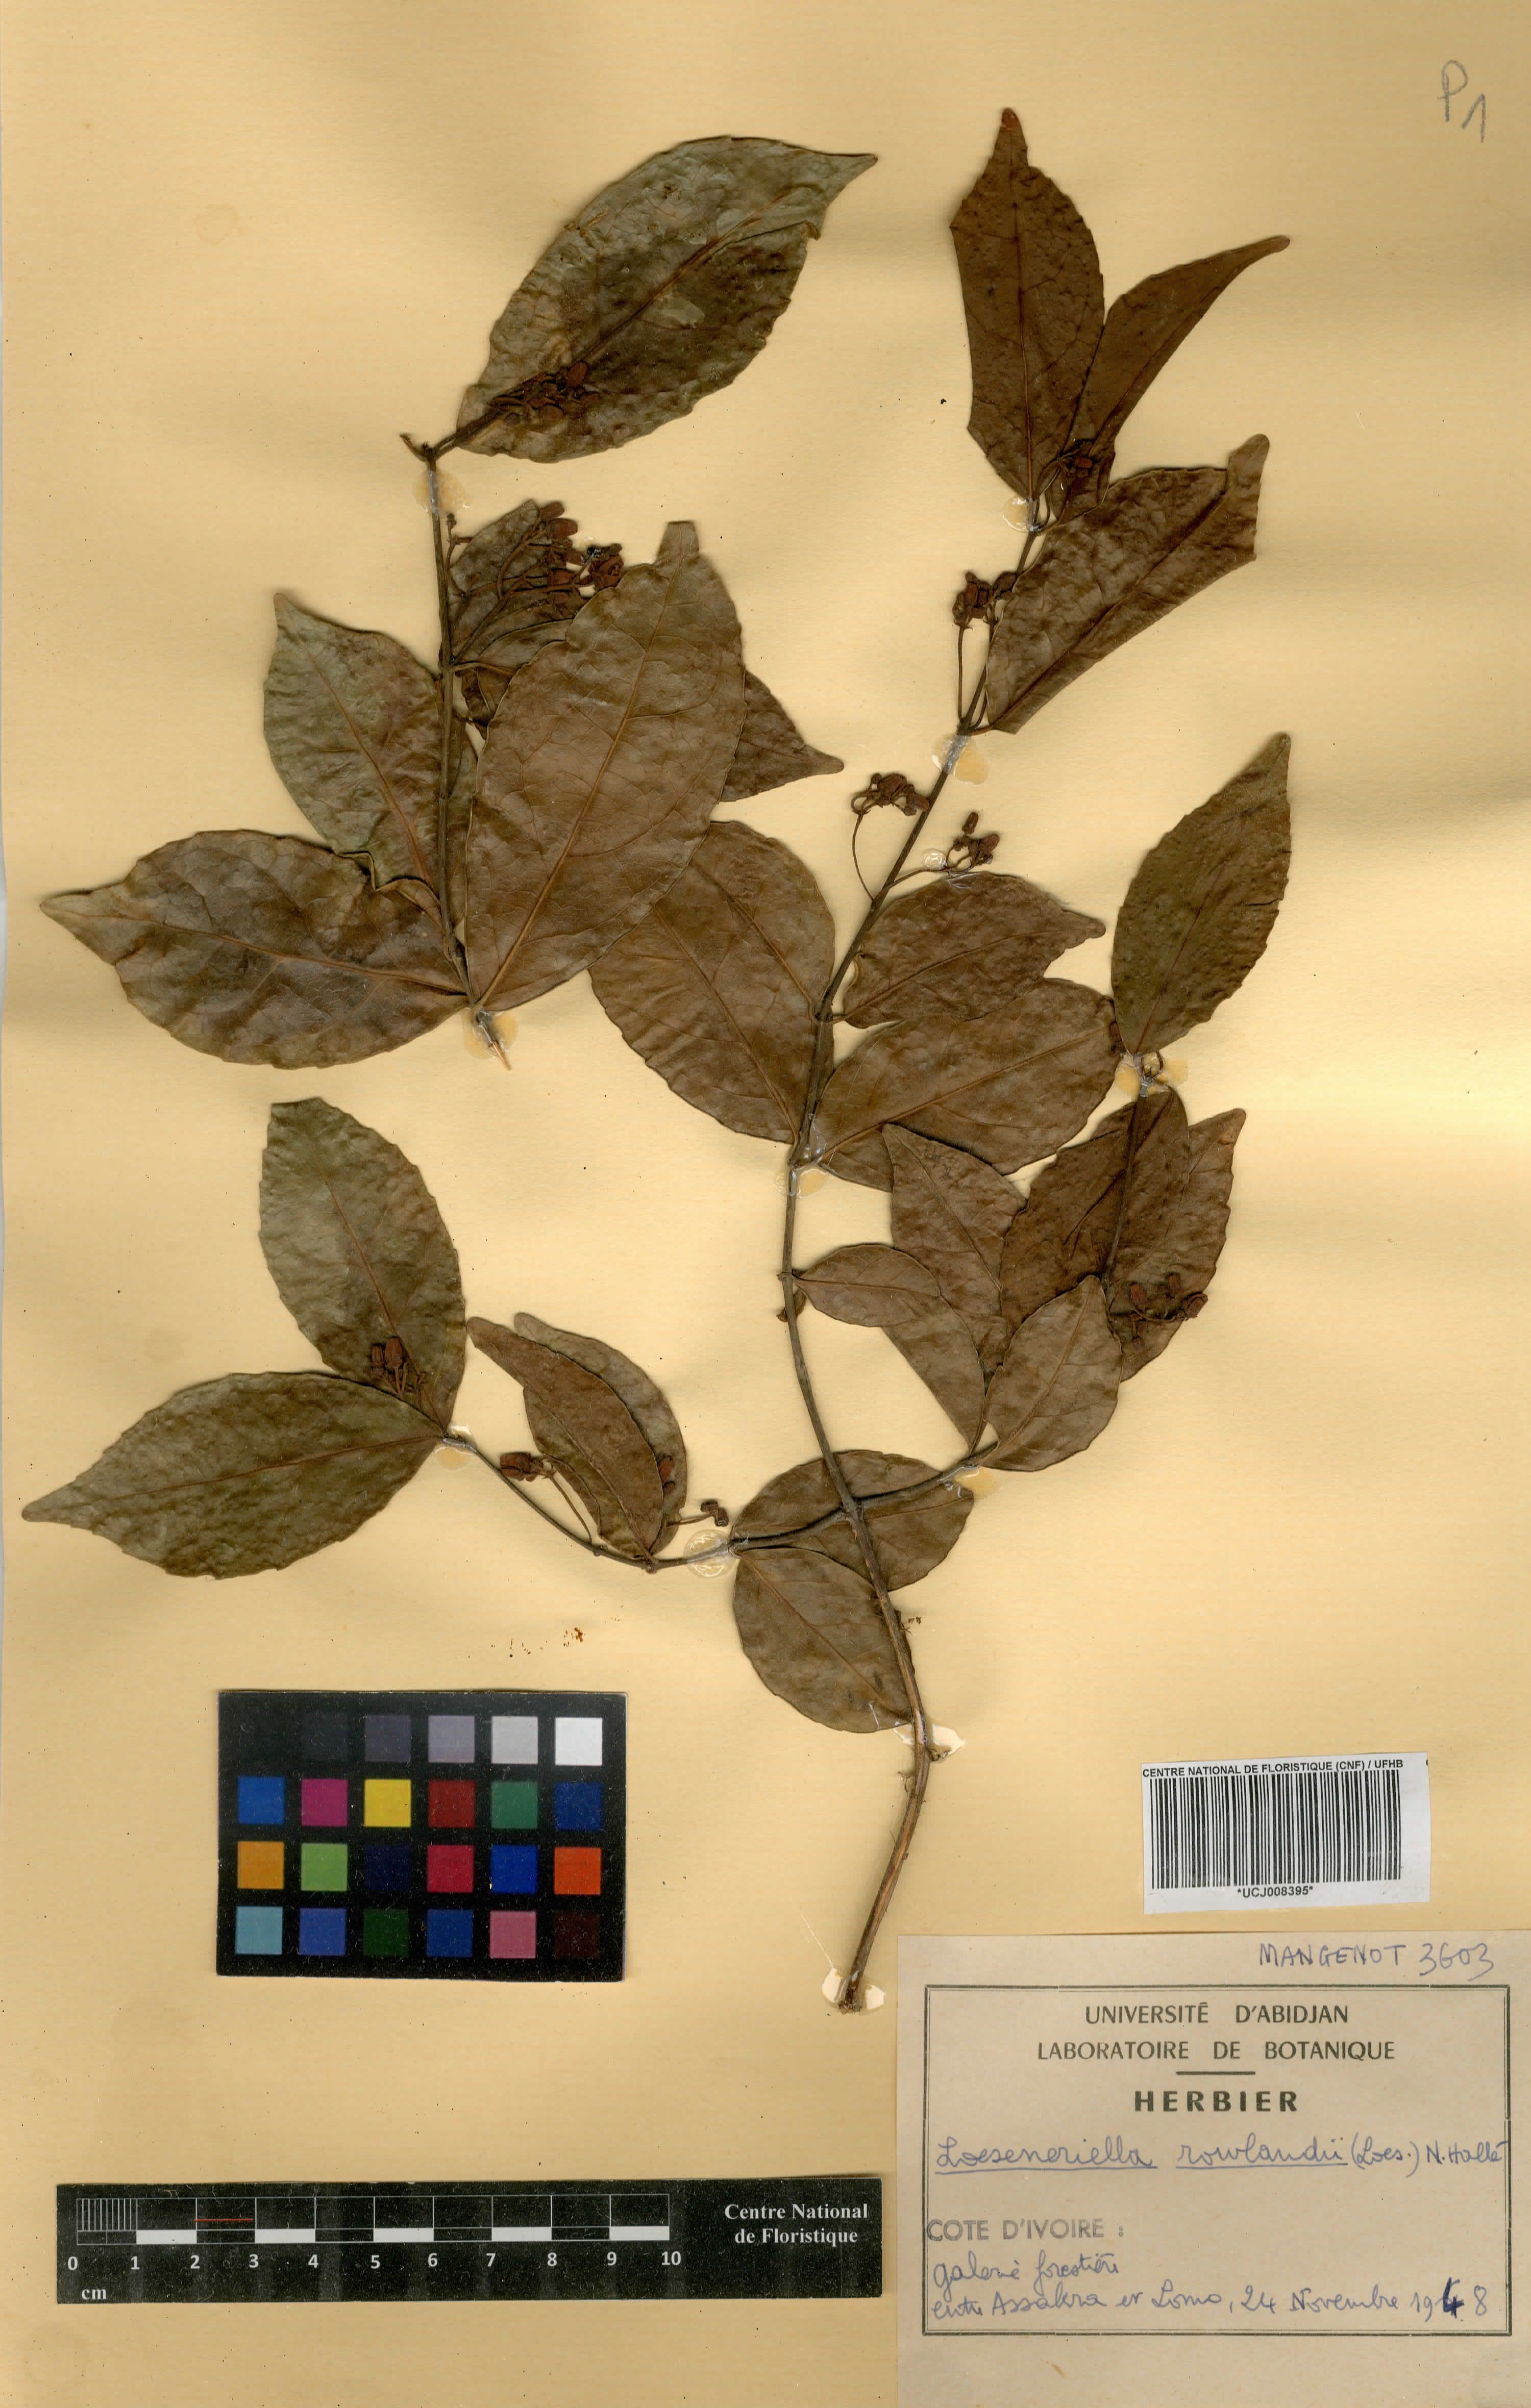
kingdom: Plantae
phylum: Tracheophyta
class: Magnoliopsida
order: Celastrales
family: Celastraceae
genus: Loeseneriella
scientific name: Loeseneriella rowlandii
